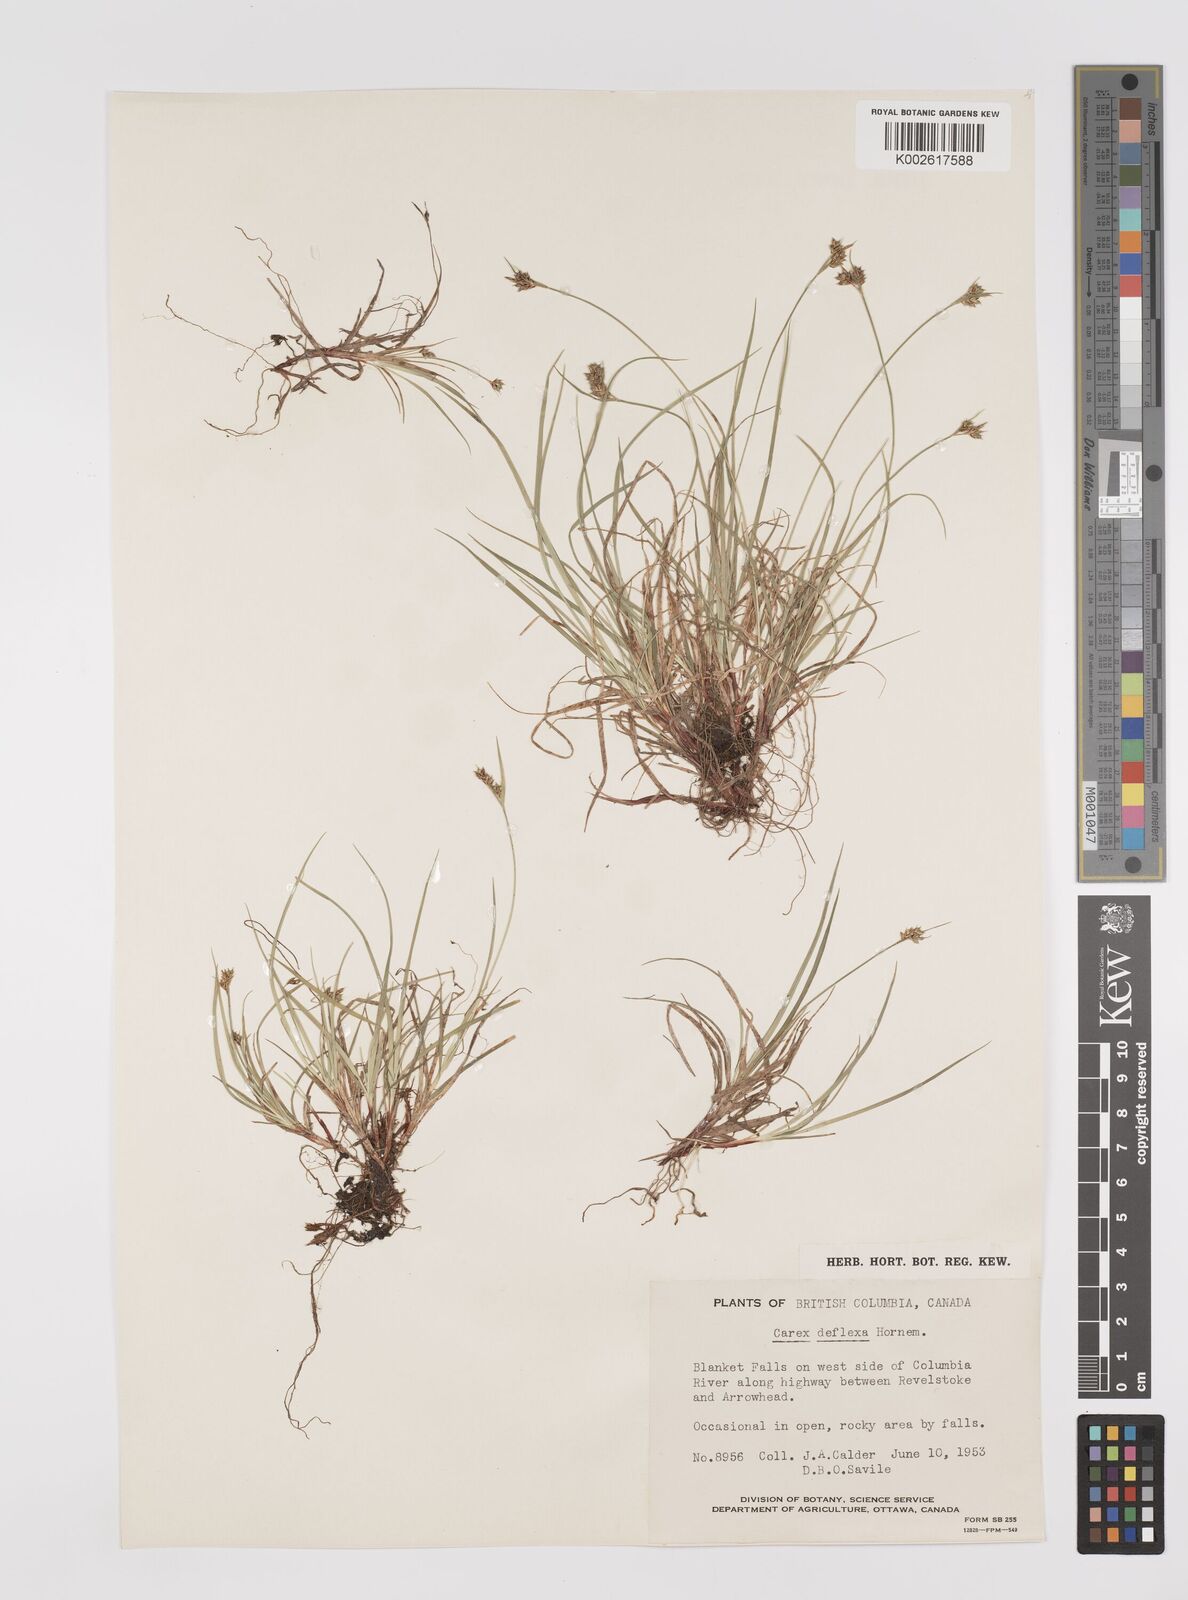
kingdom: Plantae
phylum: Tracheophyta
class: Liliopsida
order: Poales
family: Cyperaceae
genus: Carex
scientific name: Carex deflexa
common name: Bent northern sedge
